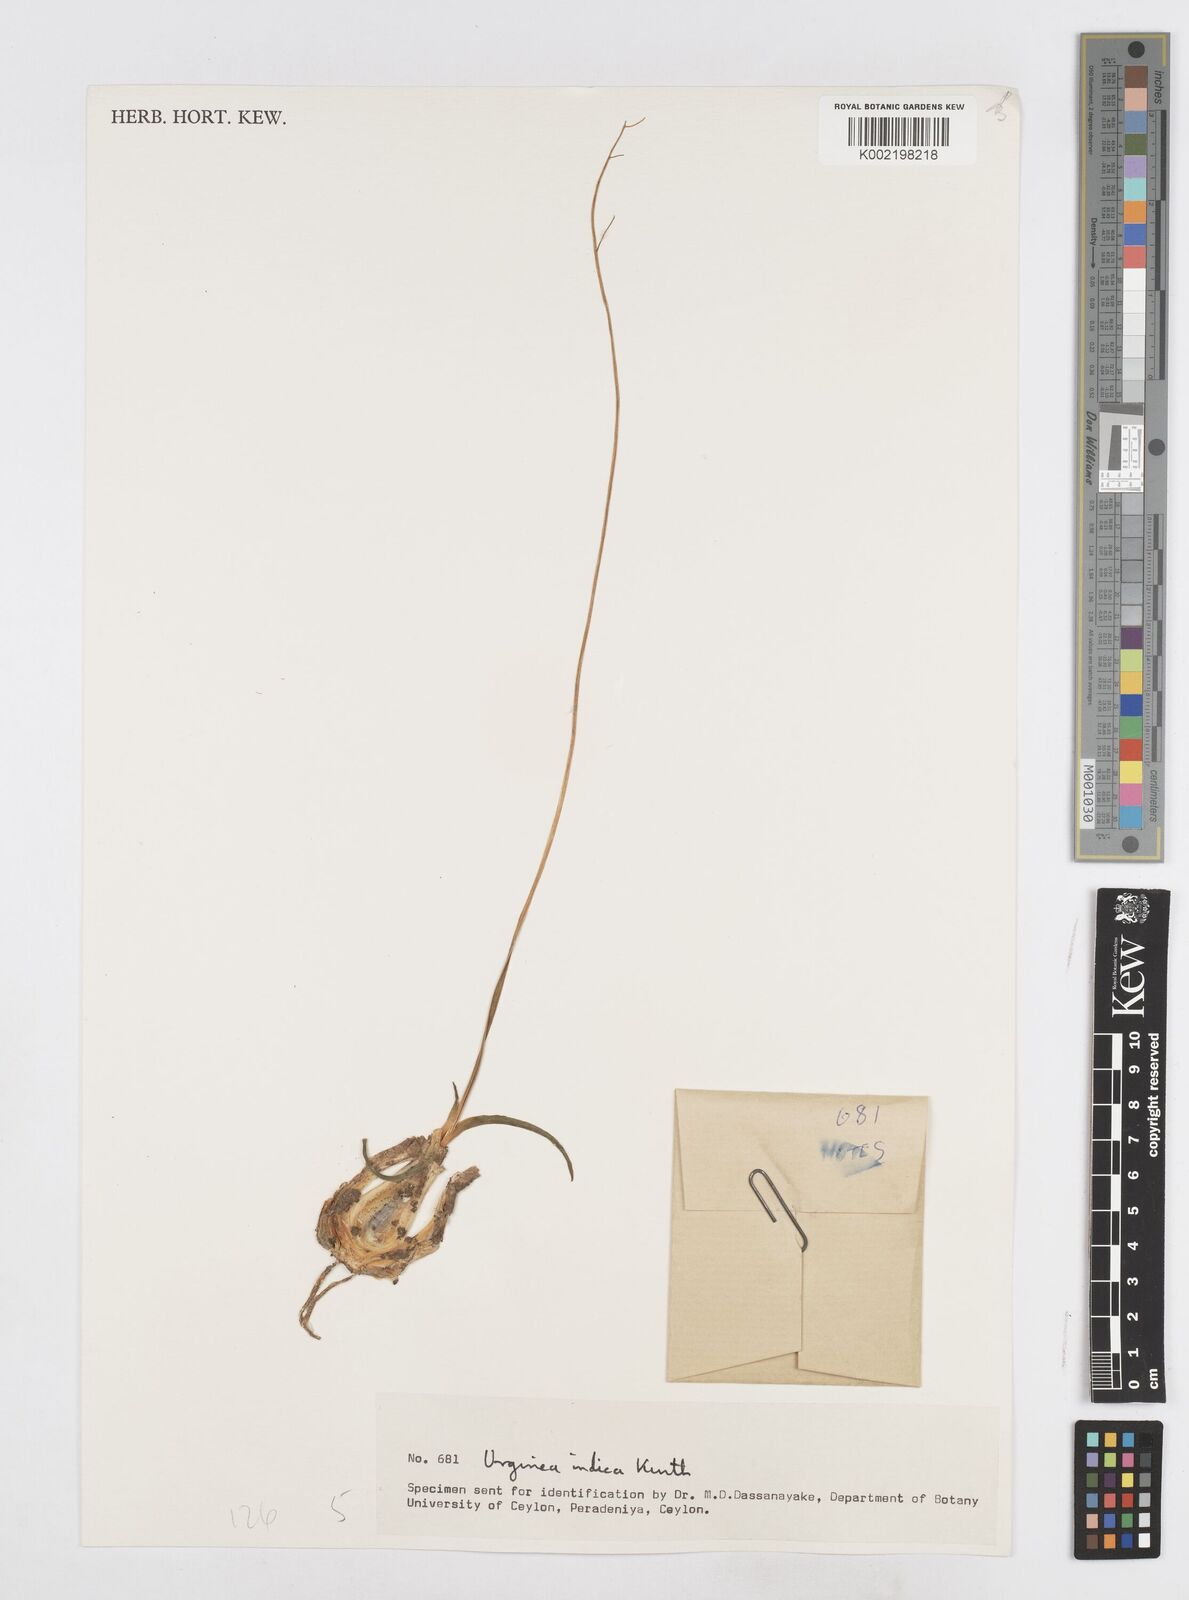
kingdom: Plantae
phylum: Tracheophyta
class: Liliopsida
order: Asparagales
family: Asparagaceae
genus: Drimia
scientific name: Drimia indica
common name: Indian-squill
